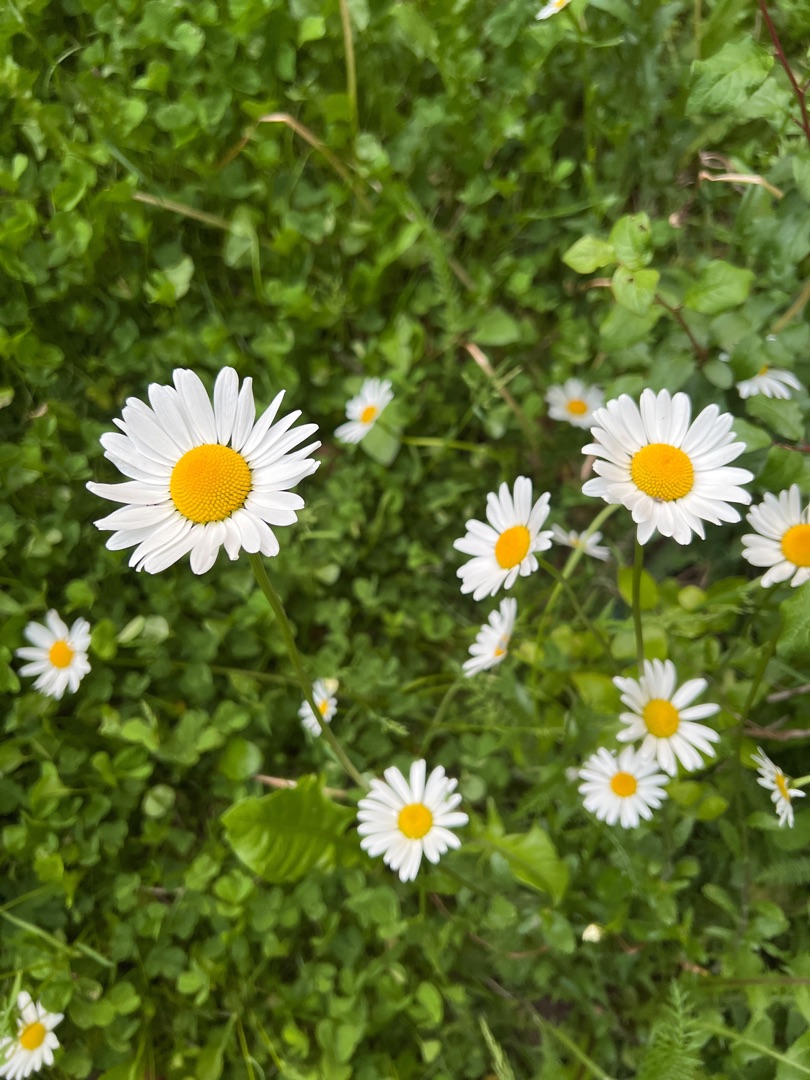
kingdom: Plantae
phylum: Tracheophyta
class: Magnoliopsida
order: Asterales
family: Asteraceae
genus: Leucanthemum
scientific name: Leucanthemum vulgare
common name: Hvid okseøje
